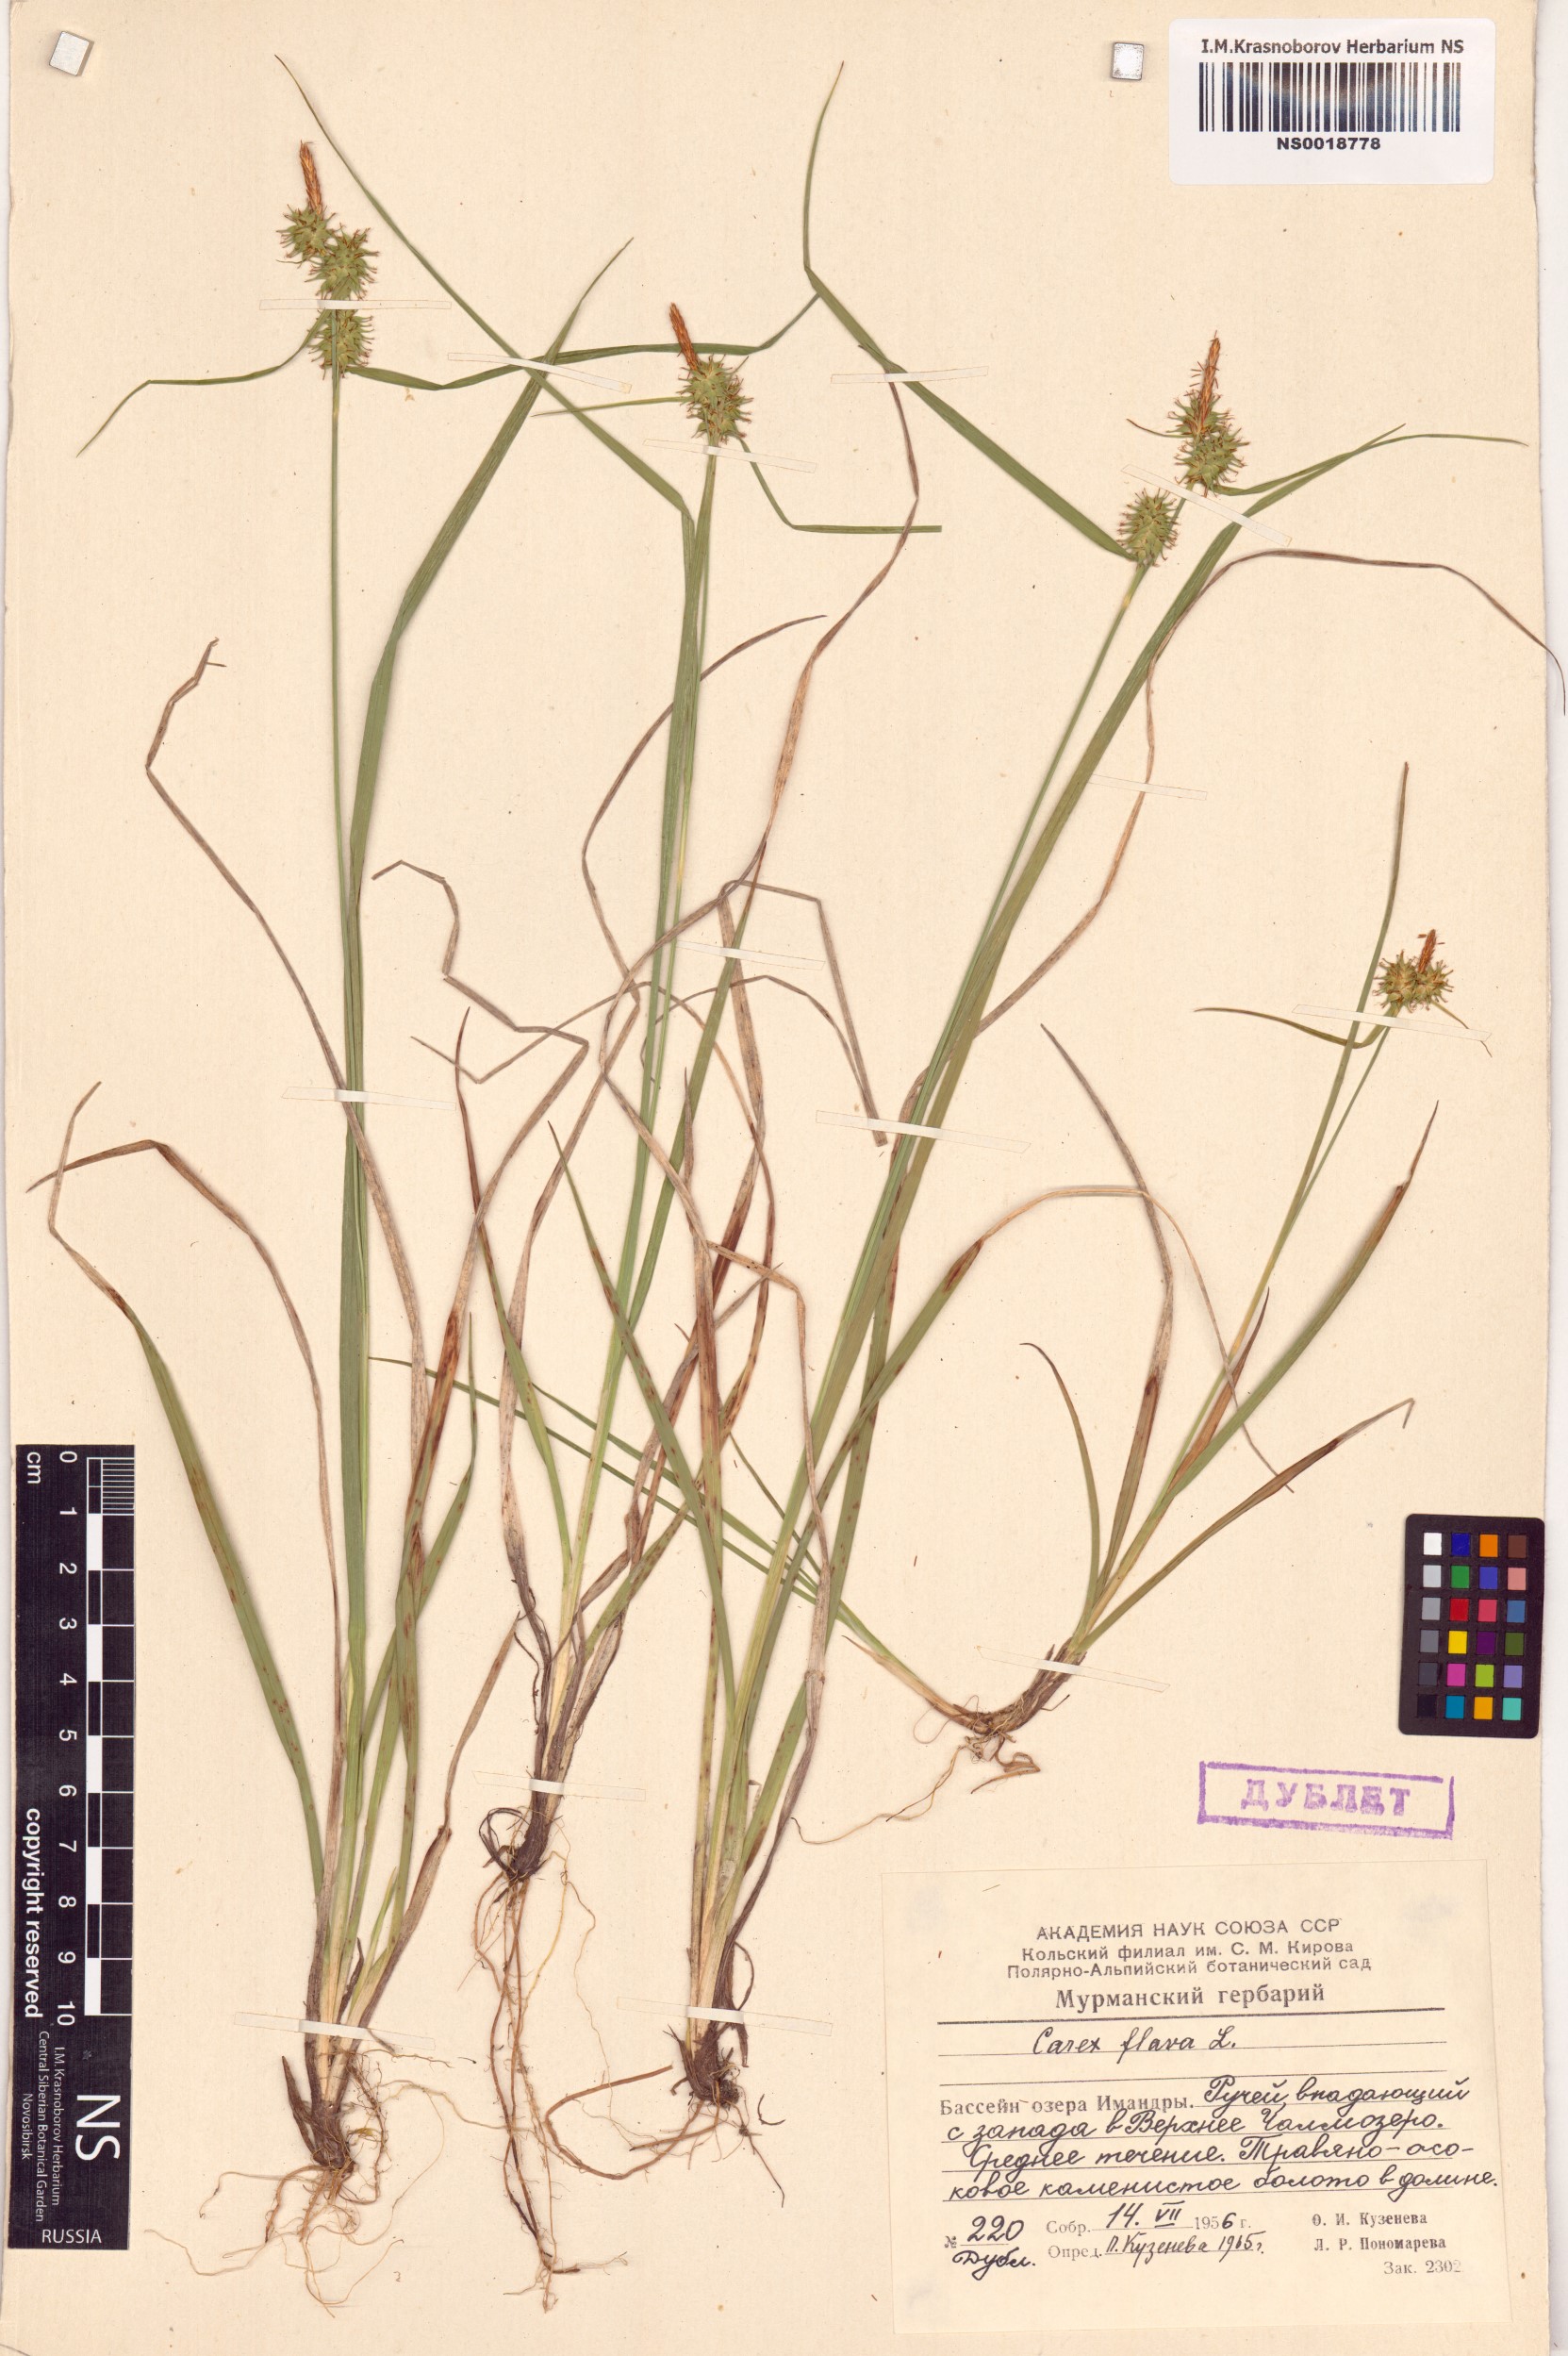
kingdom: Plantae
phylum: Tracheophyta
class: Liliopsida
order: Poales
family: Cyperaceae
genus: Carex
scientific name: Carex flava
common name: Large yellow-sedge
